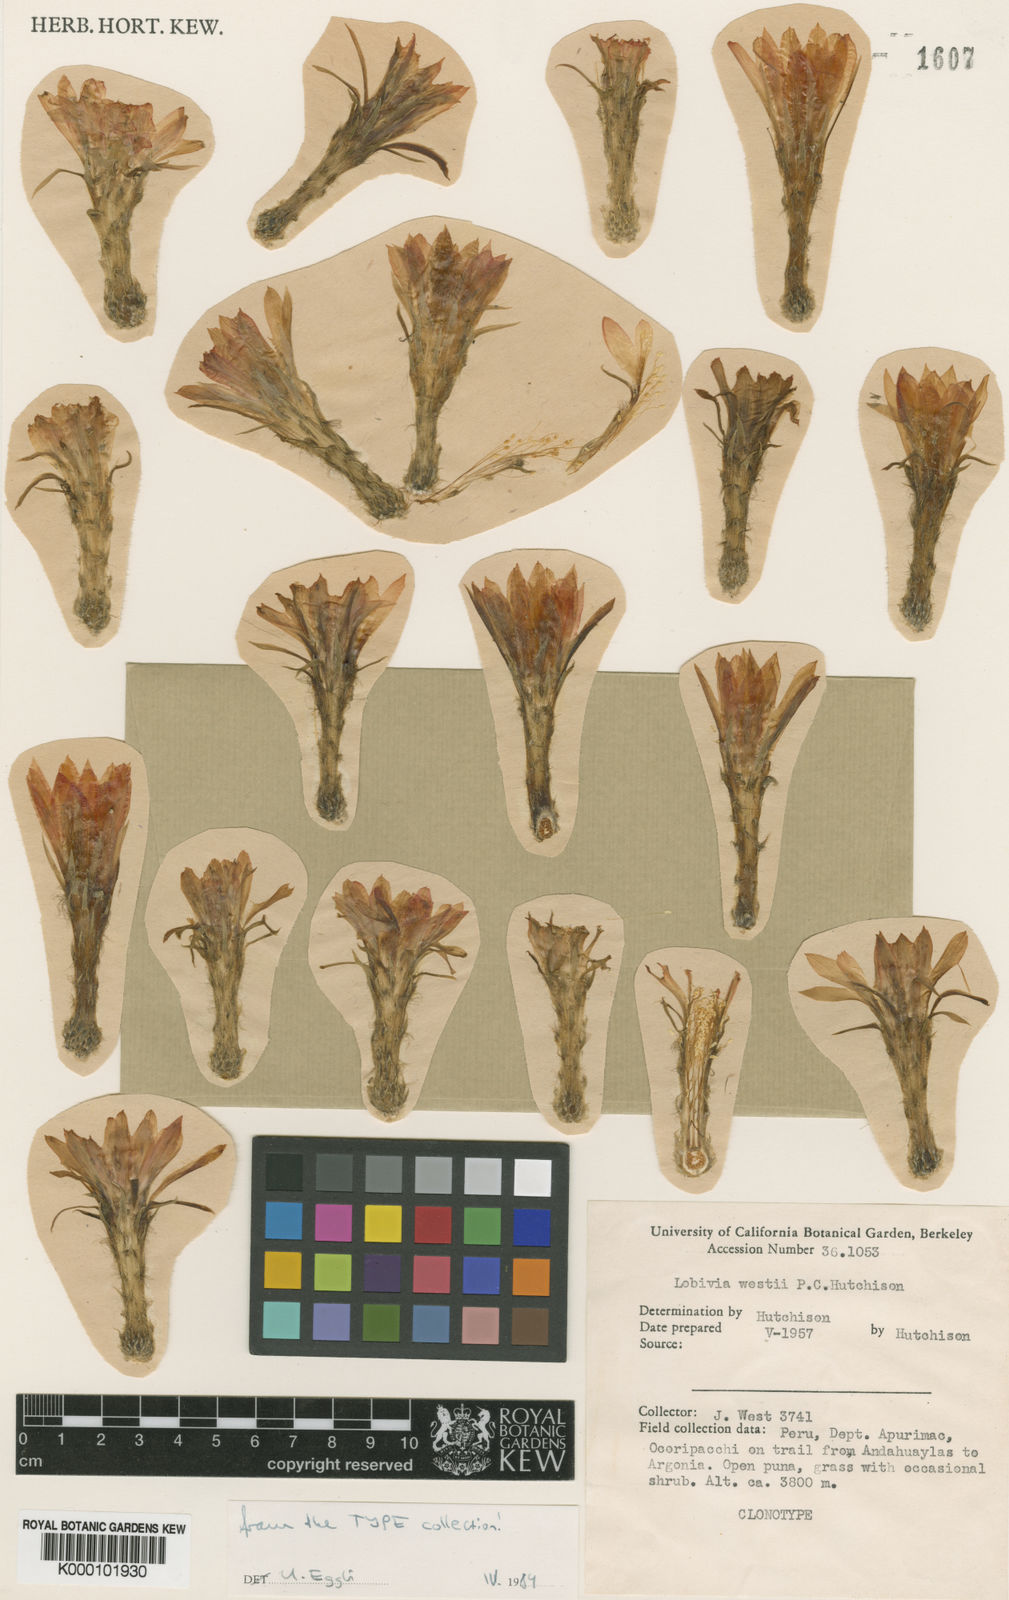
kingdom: Plantae
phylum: Tracheophyta
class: Magnoliopsida
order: Caryophyllales
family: Cactaceae
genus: Lobivia
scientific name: Lobivia maximiliana
